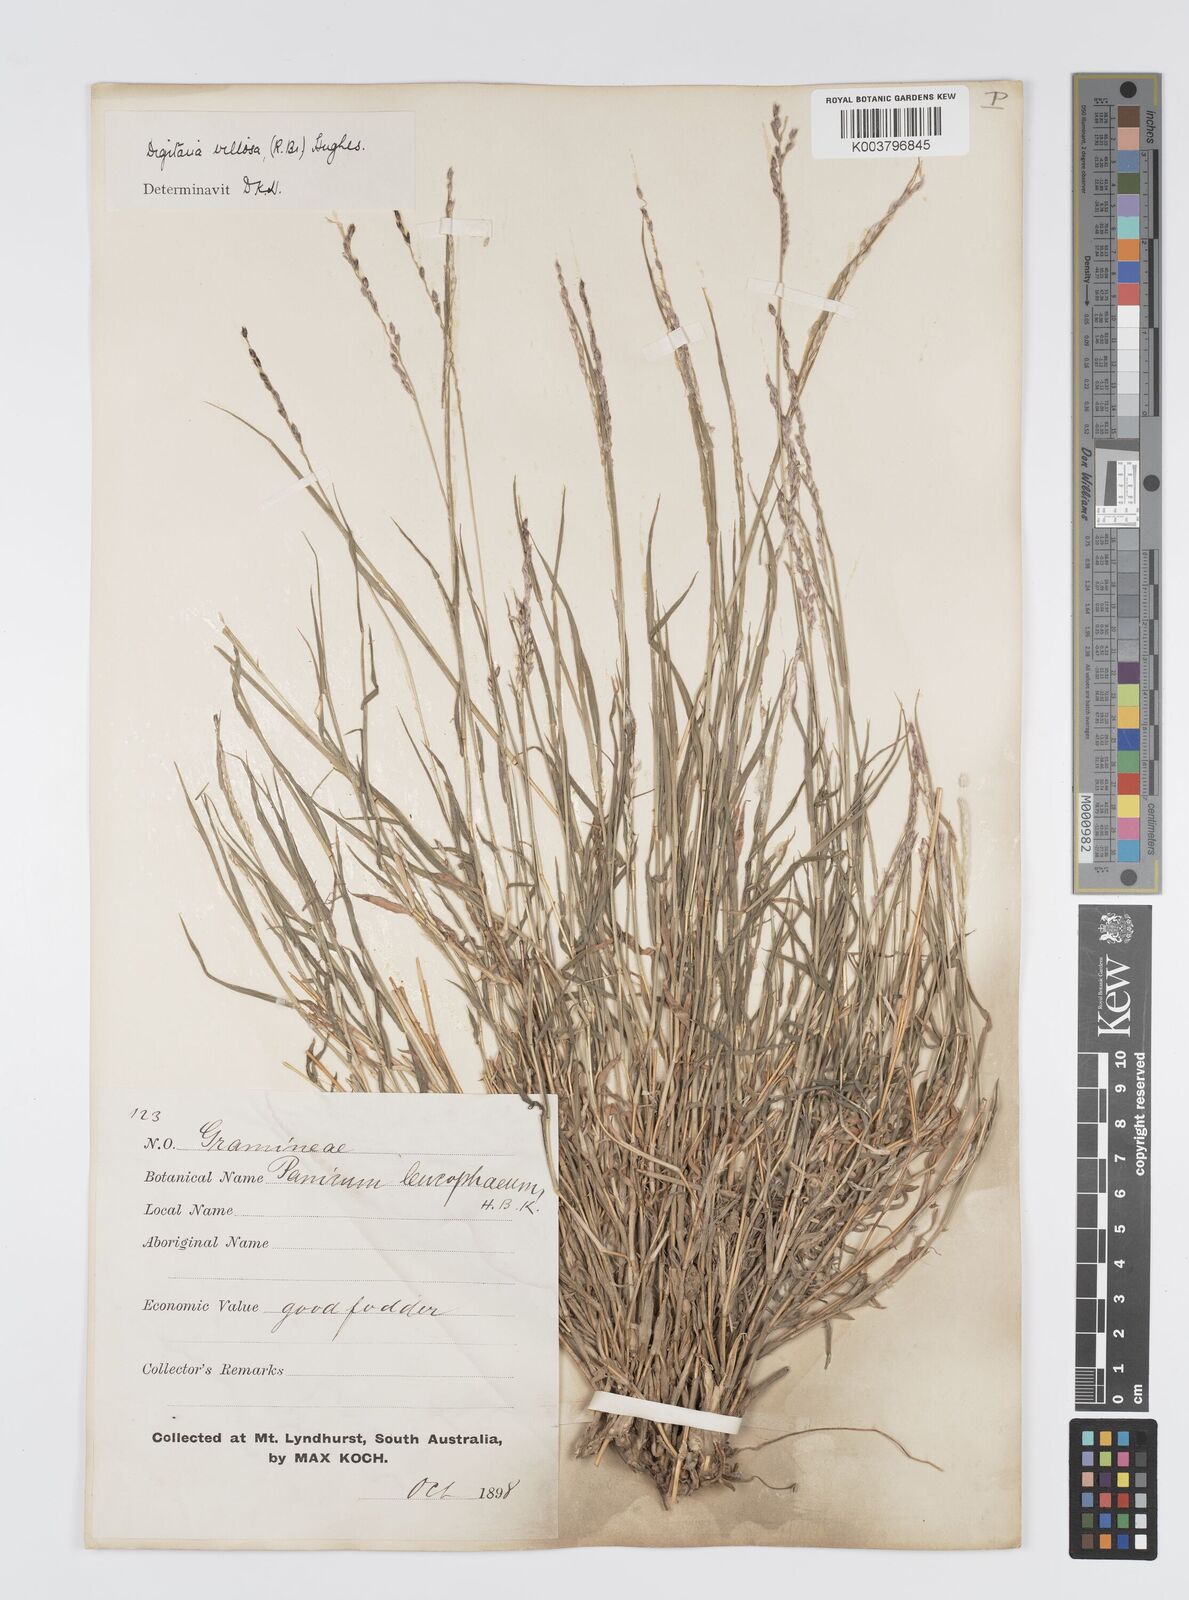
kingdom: Plantae
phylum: Tracheophyta
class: Liliopsida
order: Poales
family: Poaceae
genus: Digitaria
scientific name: Digitaria brownii
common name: Cotton grass
